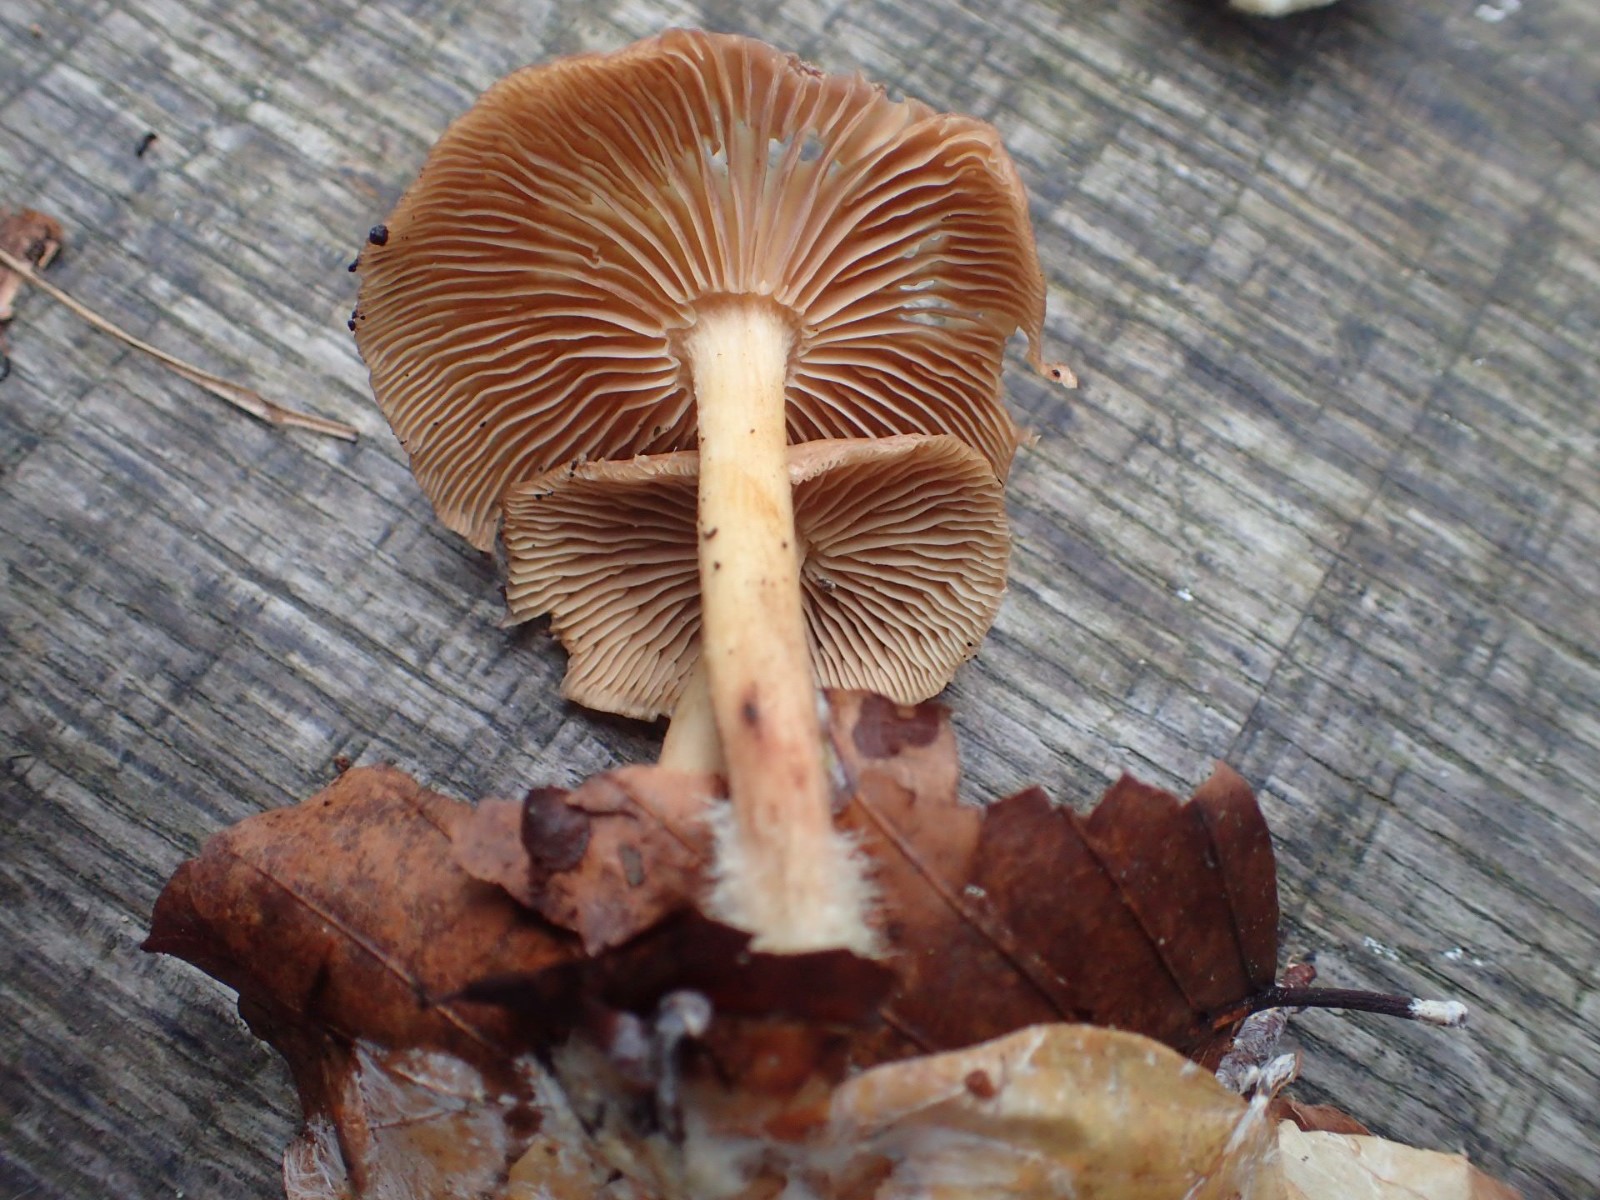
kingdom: Fungi
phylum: Basidiomycota
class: Agaricomycetes
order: Agaricales
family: Omphalotaceae
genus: Collybiopsis
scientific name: Collybiopsis peronata
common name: bestøvlet fladhat
